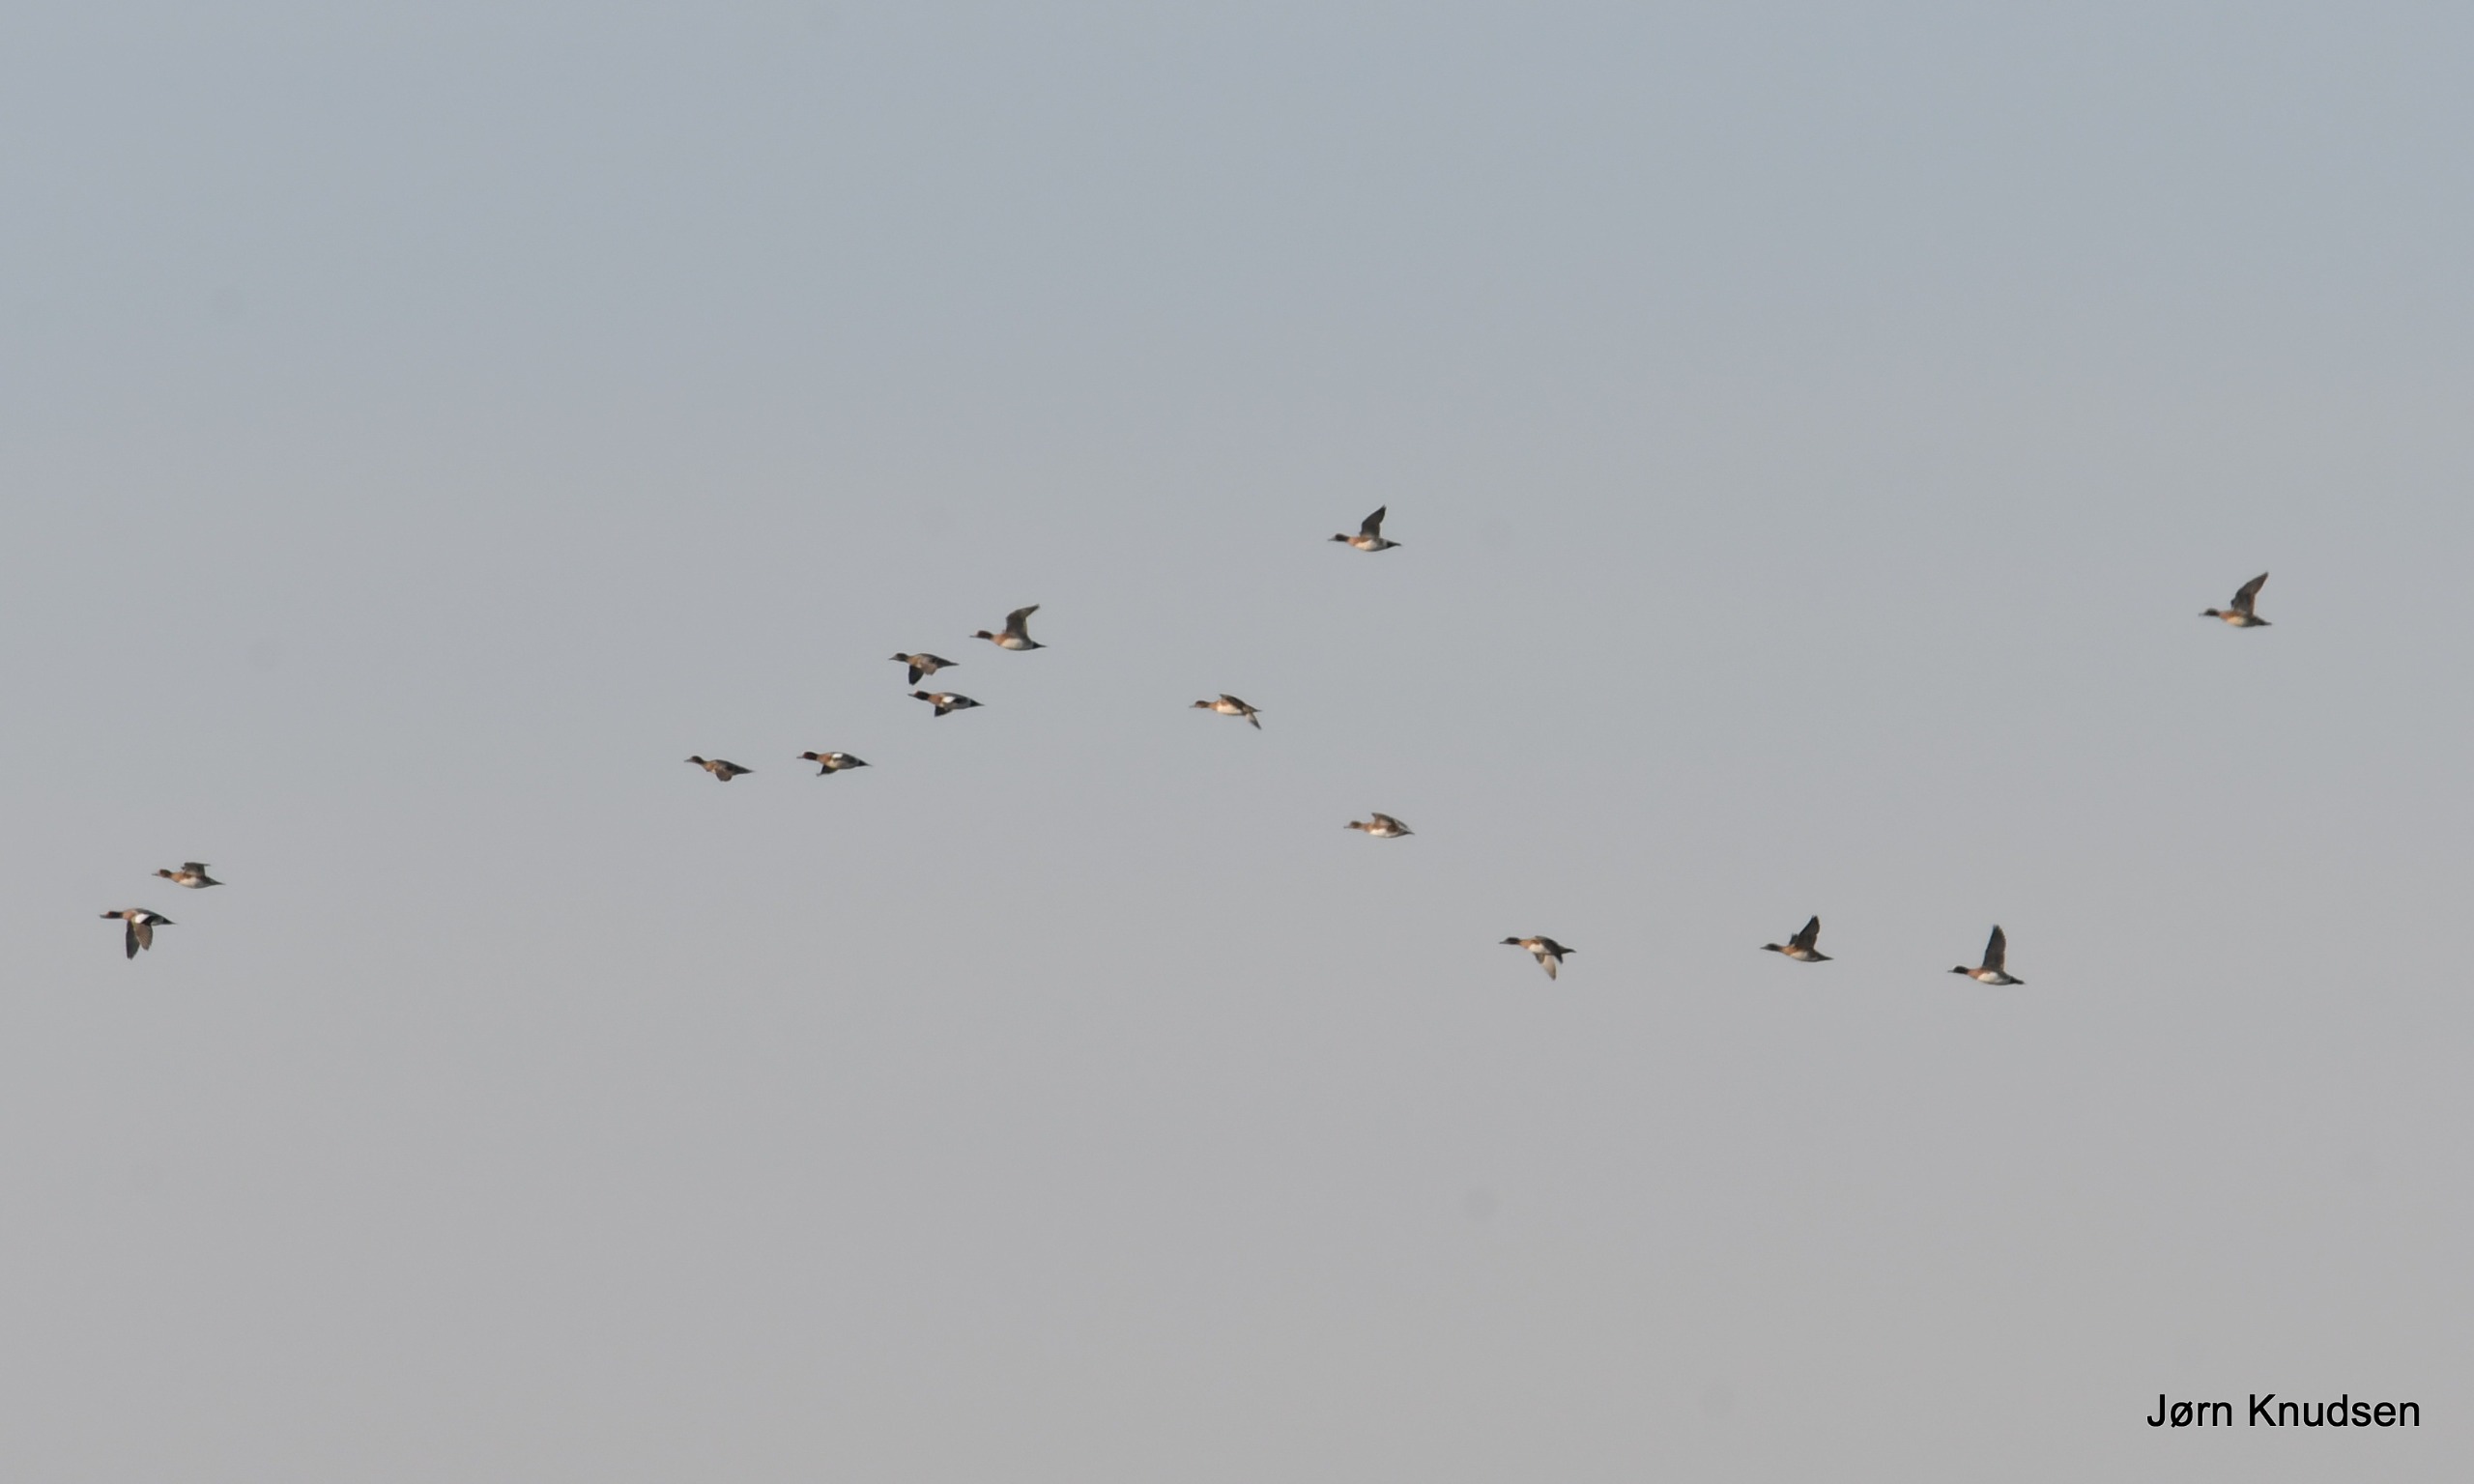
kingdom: Animalia
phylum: Chordata
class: Aves
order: Anseriformes
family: Anatidae
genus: Mareca
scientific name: Mareca penelope
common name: Pibeand
